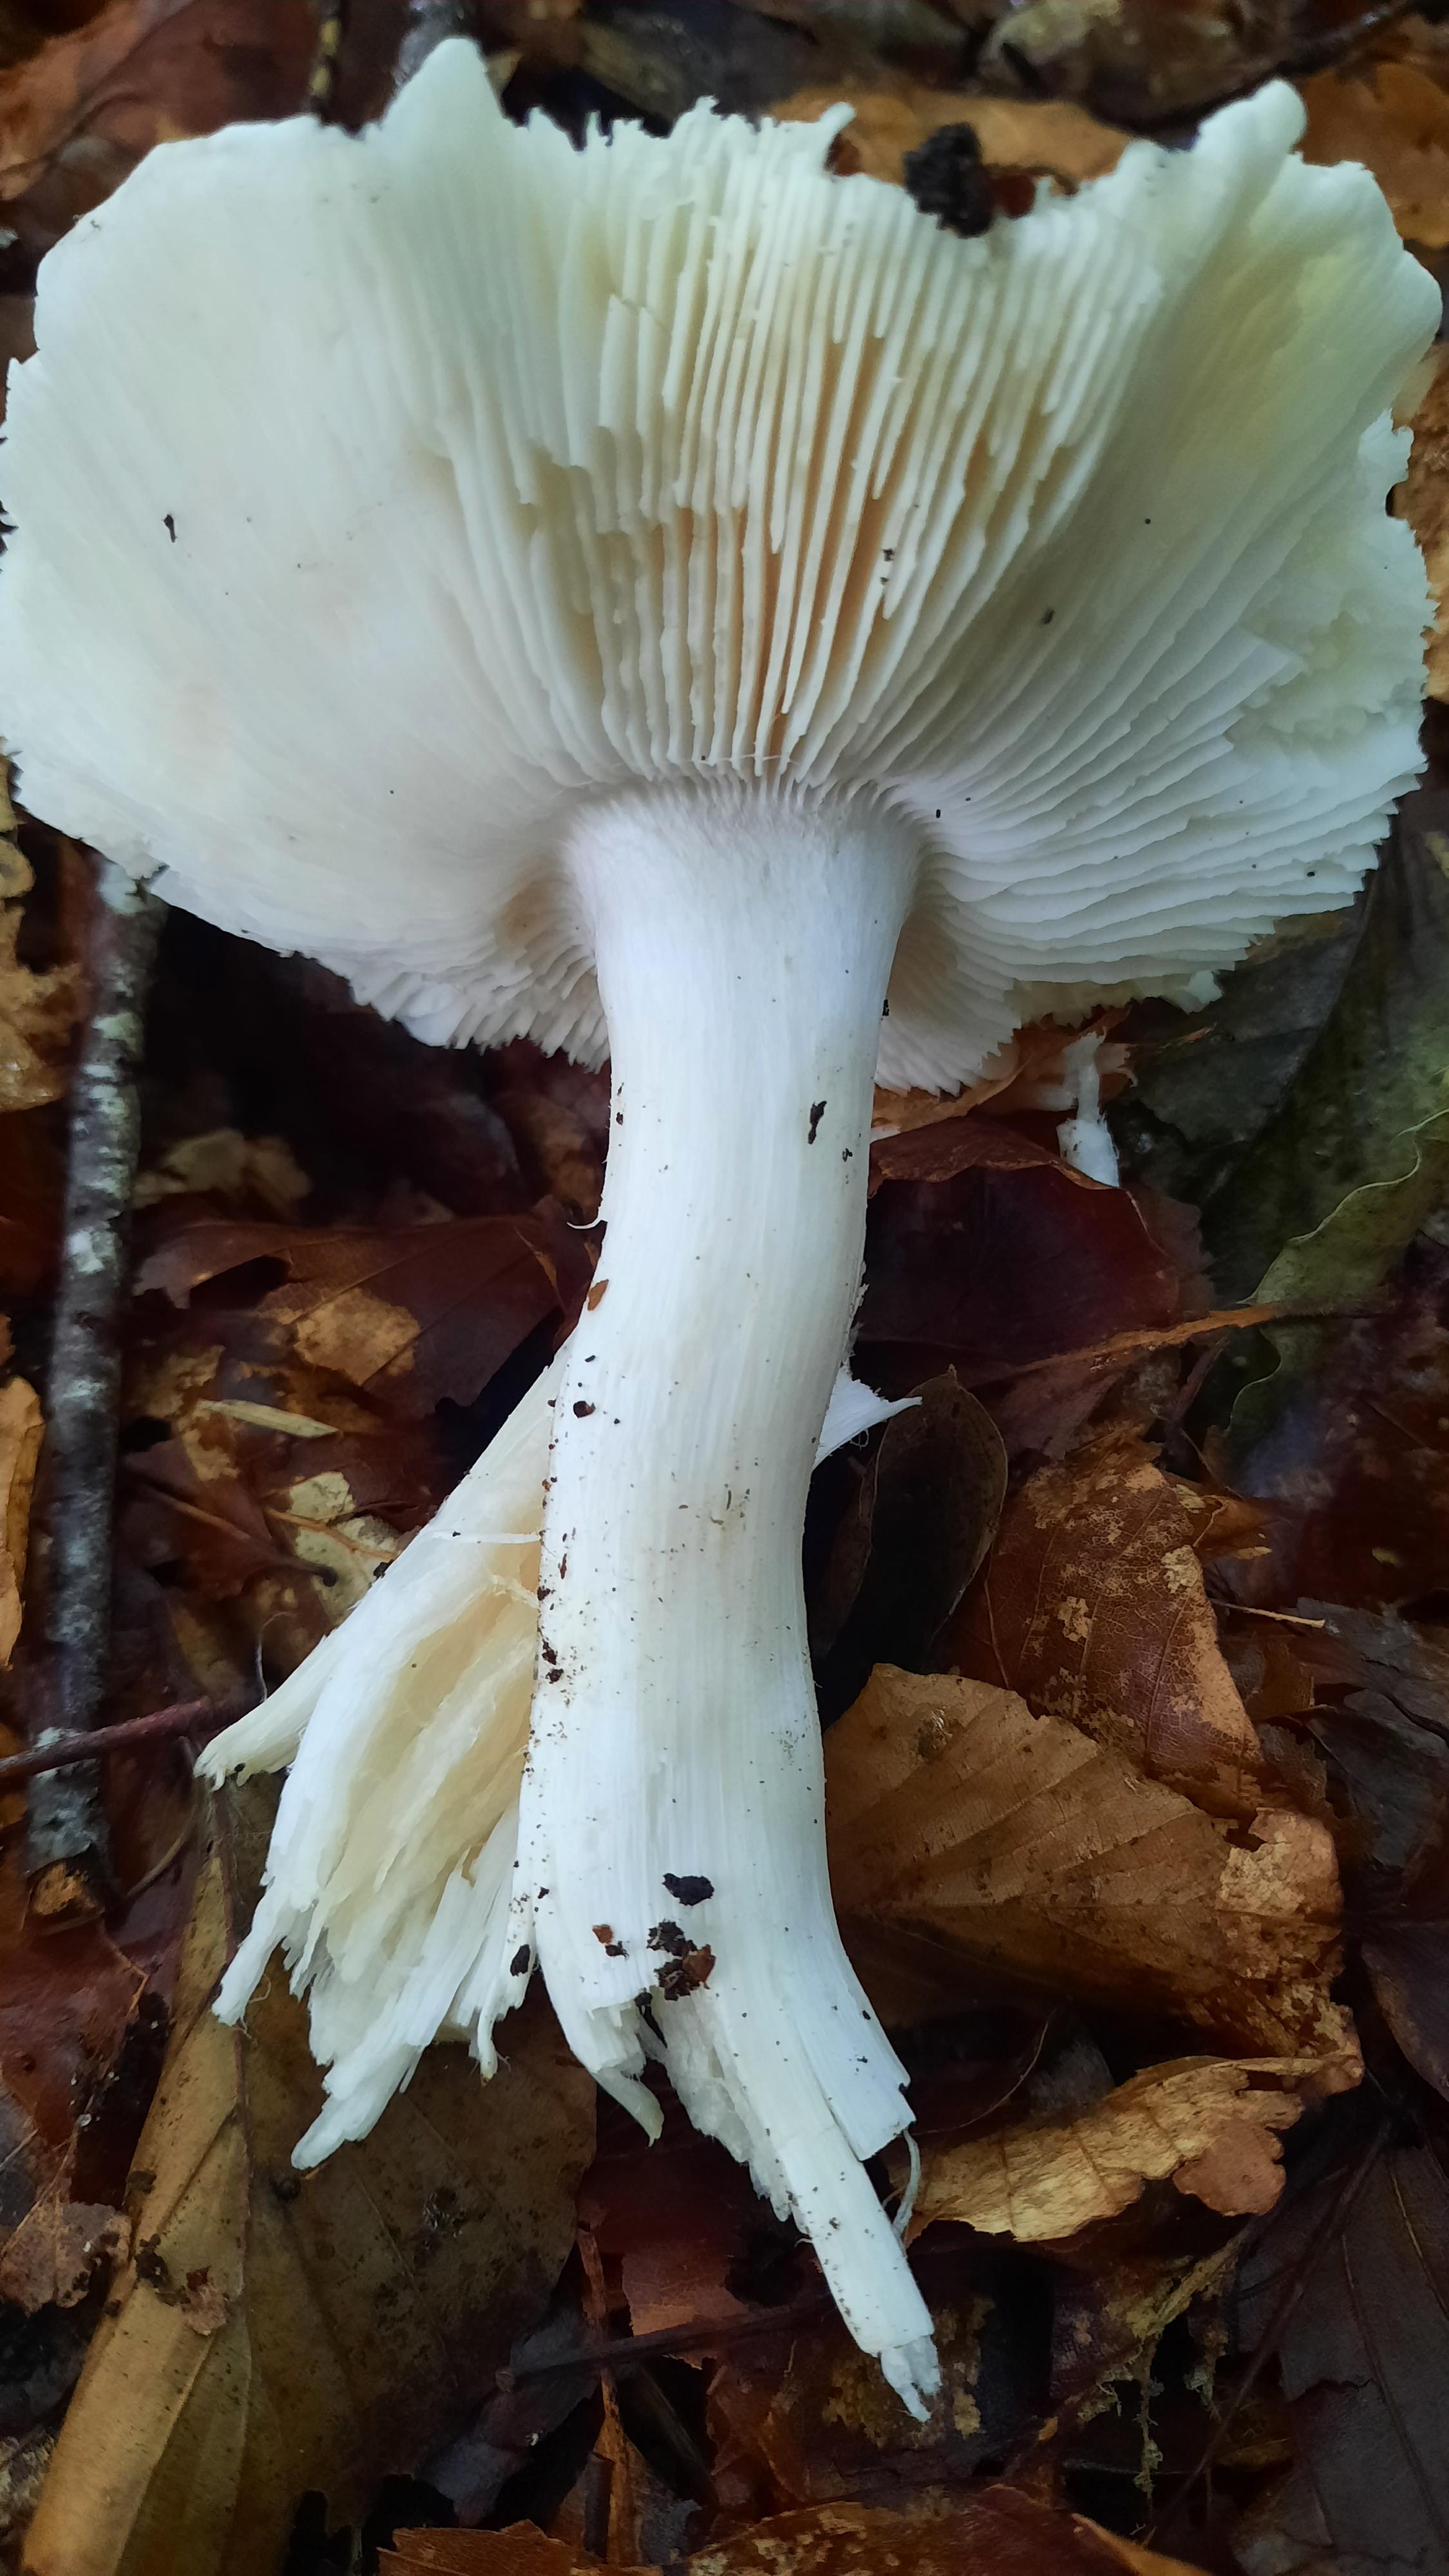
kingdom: Fungi
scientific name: Fungi
